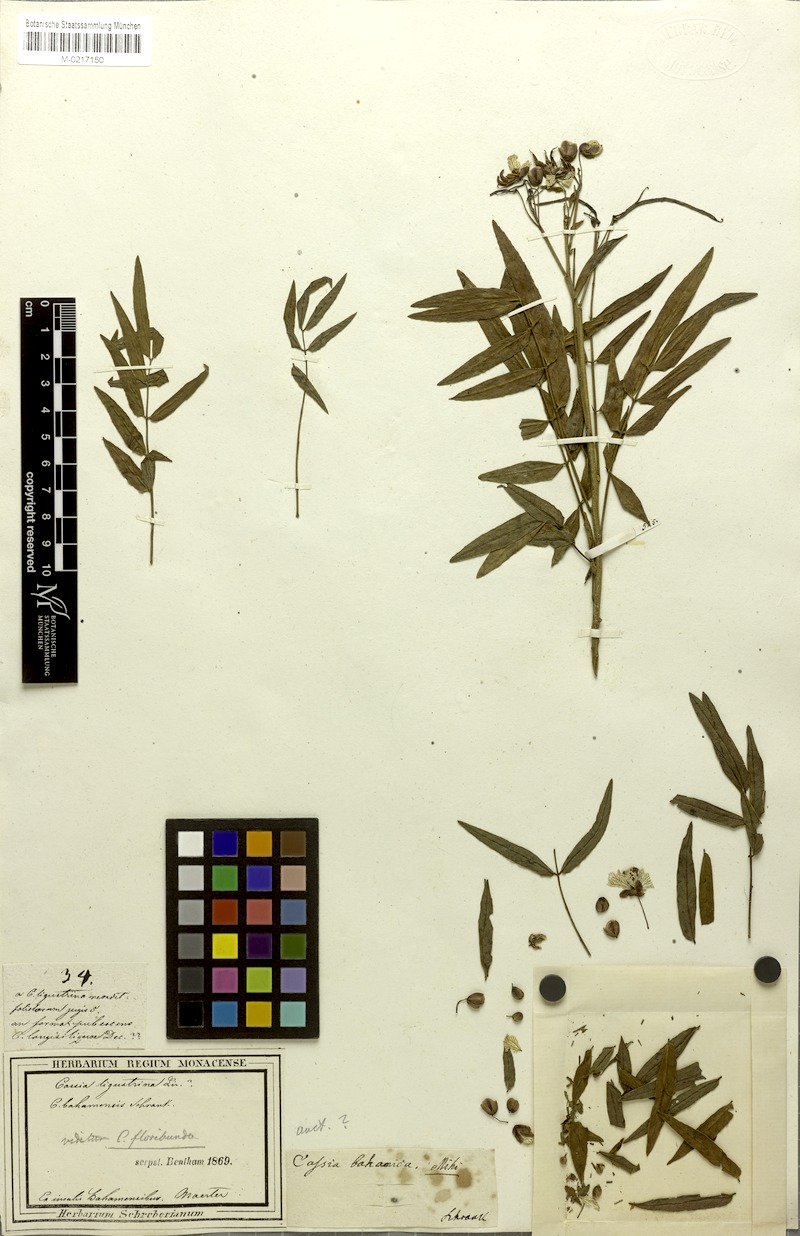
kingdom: Plantae
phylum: Tracheophyta
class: Magnoliopsida
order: Fabales
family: Fabaceae
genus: Senna
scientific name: Senna floribunda
